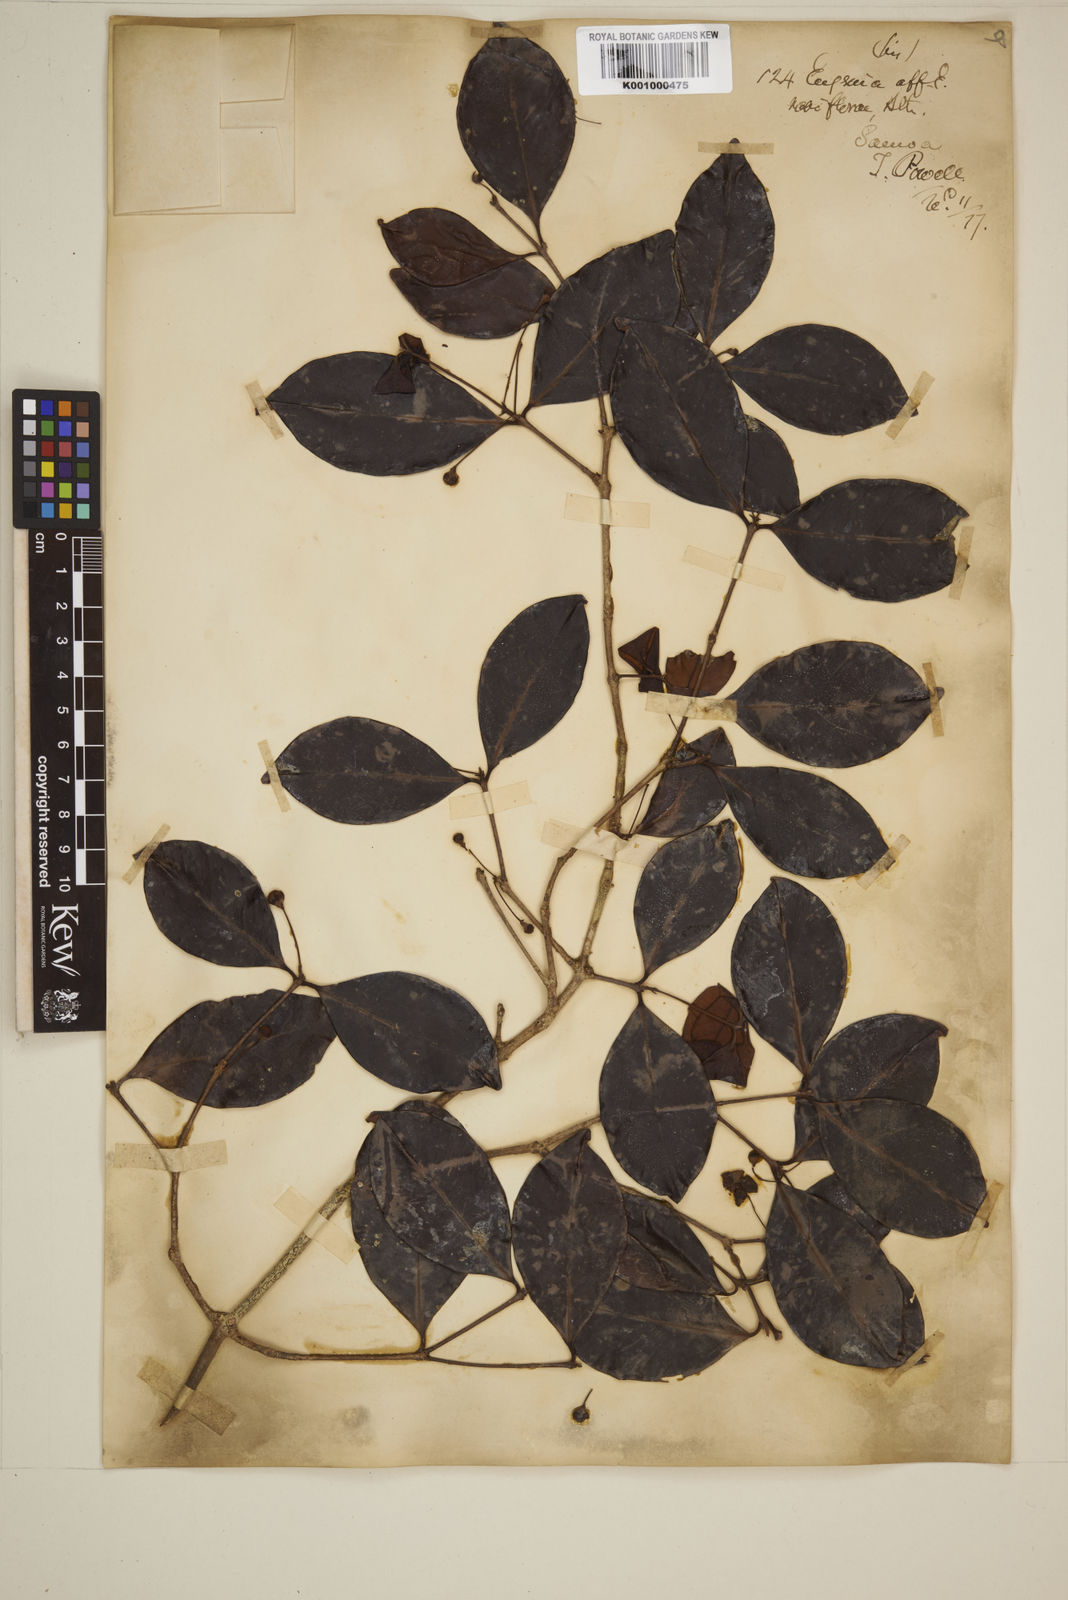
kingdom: Plantae
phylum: Tracheophyta
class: Magnoliopsida
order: Myrtales
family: Myrtaceae
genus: Eugenia
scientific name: Eugenia reinwardtiana
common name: Cedar bay-cherry
